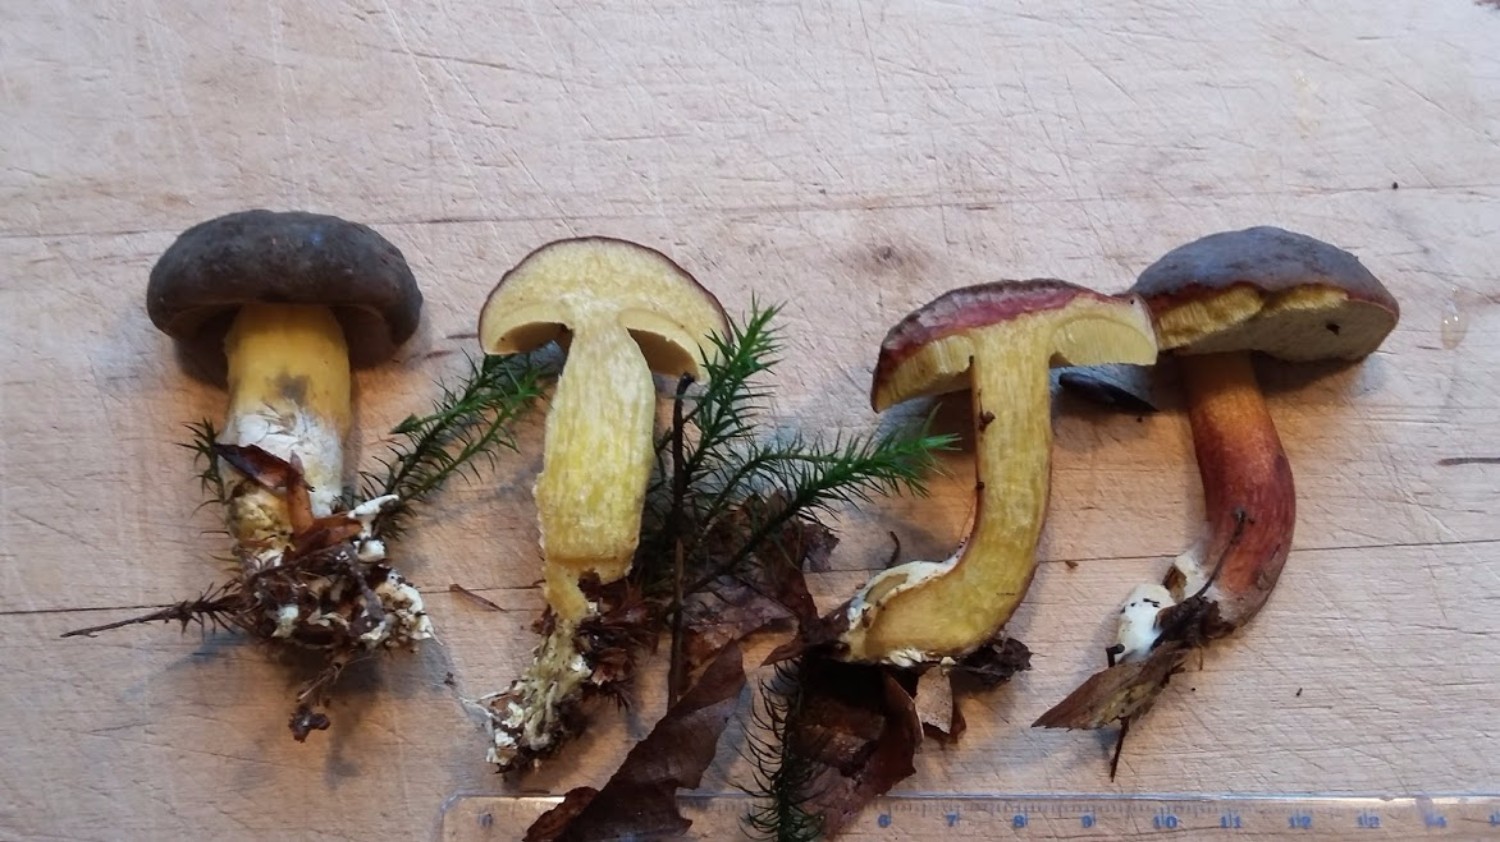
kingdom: Fungi
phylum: Basidiomycota
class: Agaricomycetes
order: Boletales
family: Boletaceae
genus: Xerocomellus
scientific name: Xerocomellus pruinatus
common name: dugget rørhat
